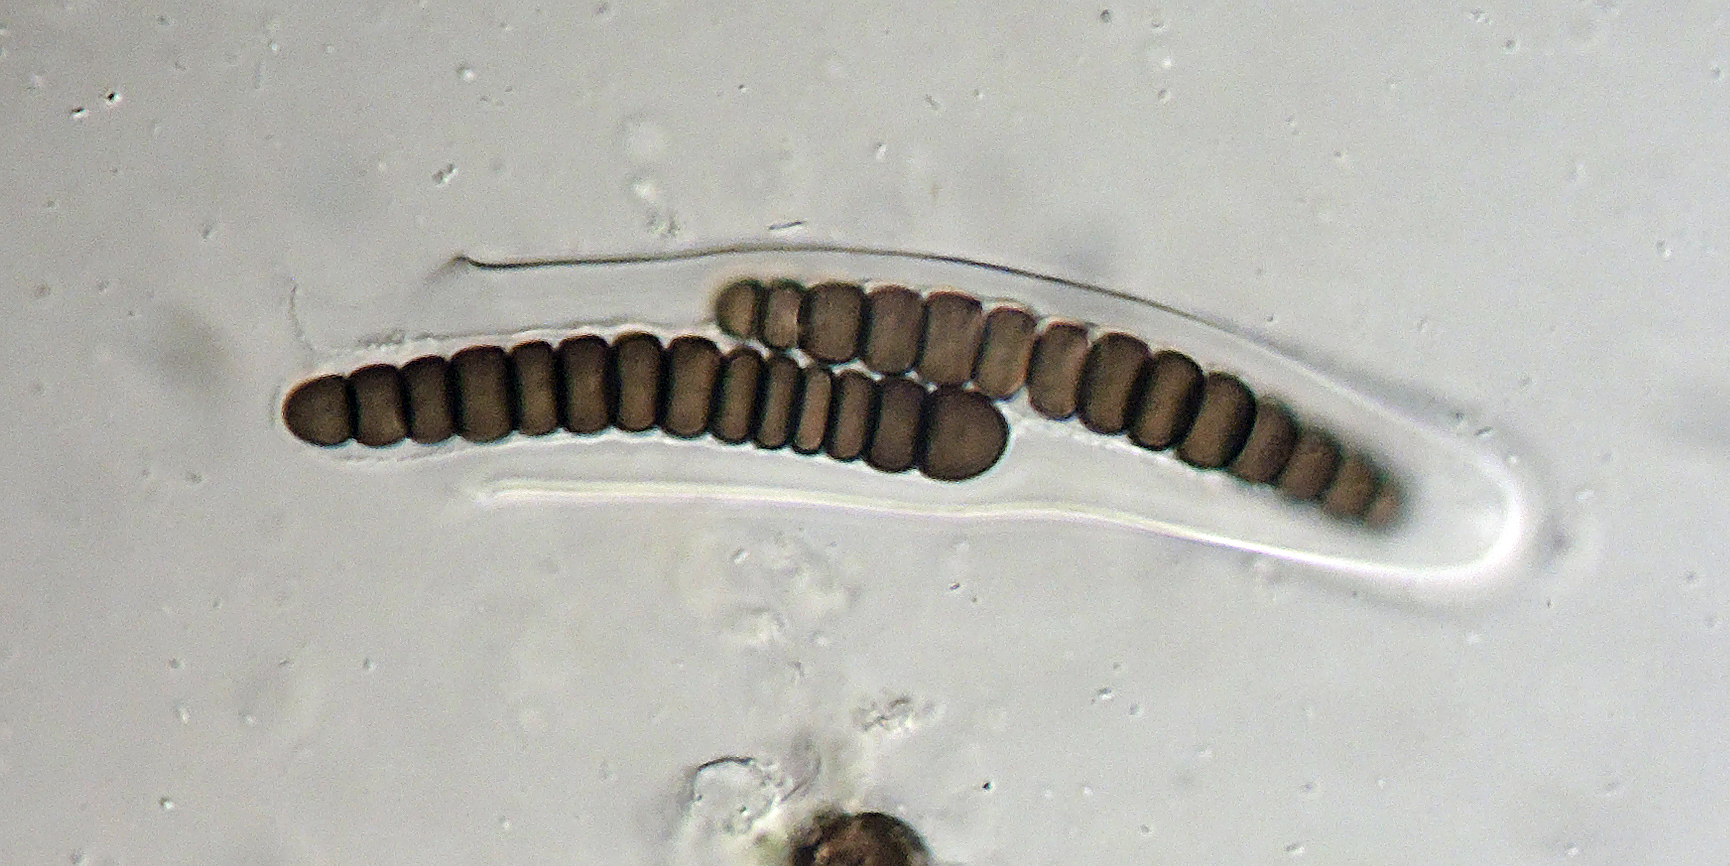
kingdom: Fungi
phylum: Ascomycota
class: Dothideomycetes
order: Pleosporales
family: Sporormiaceae
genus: Preussia
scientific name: Preussia antarctica
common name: mangecellet knækspore
